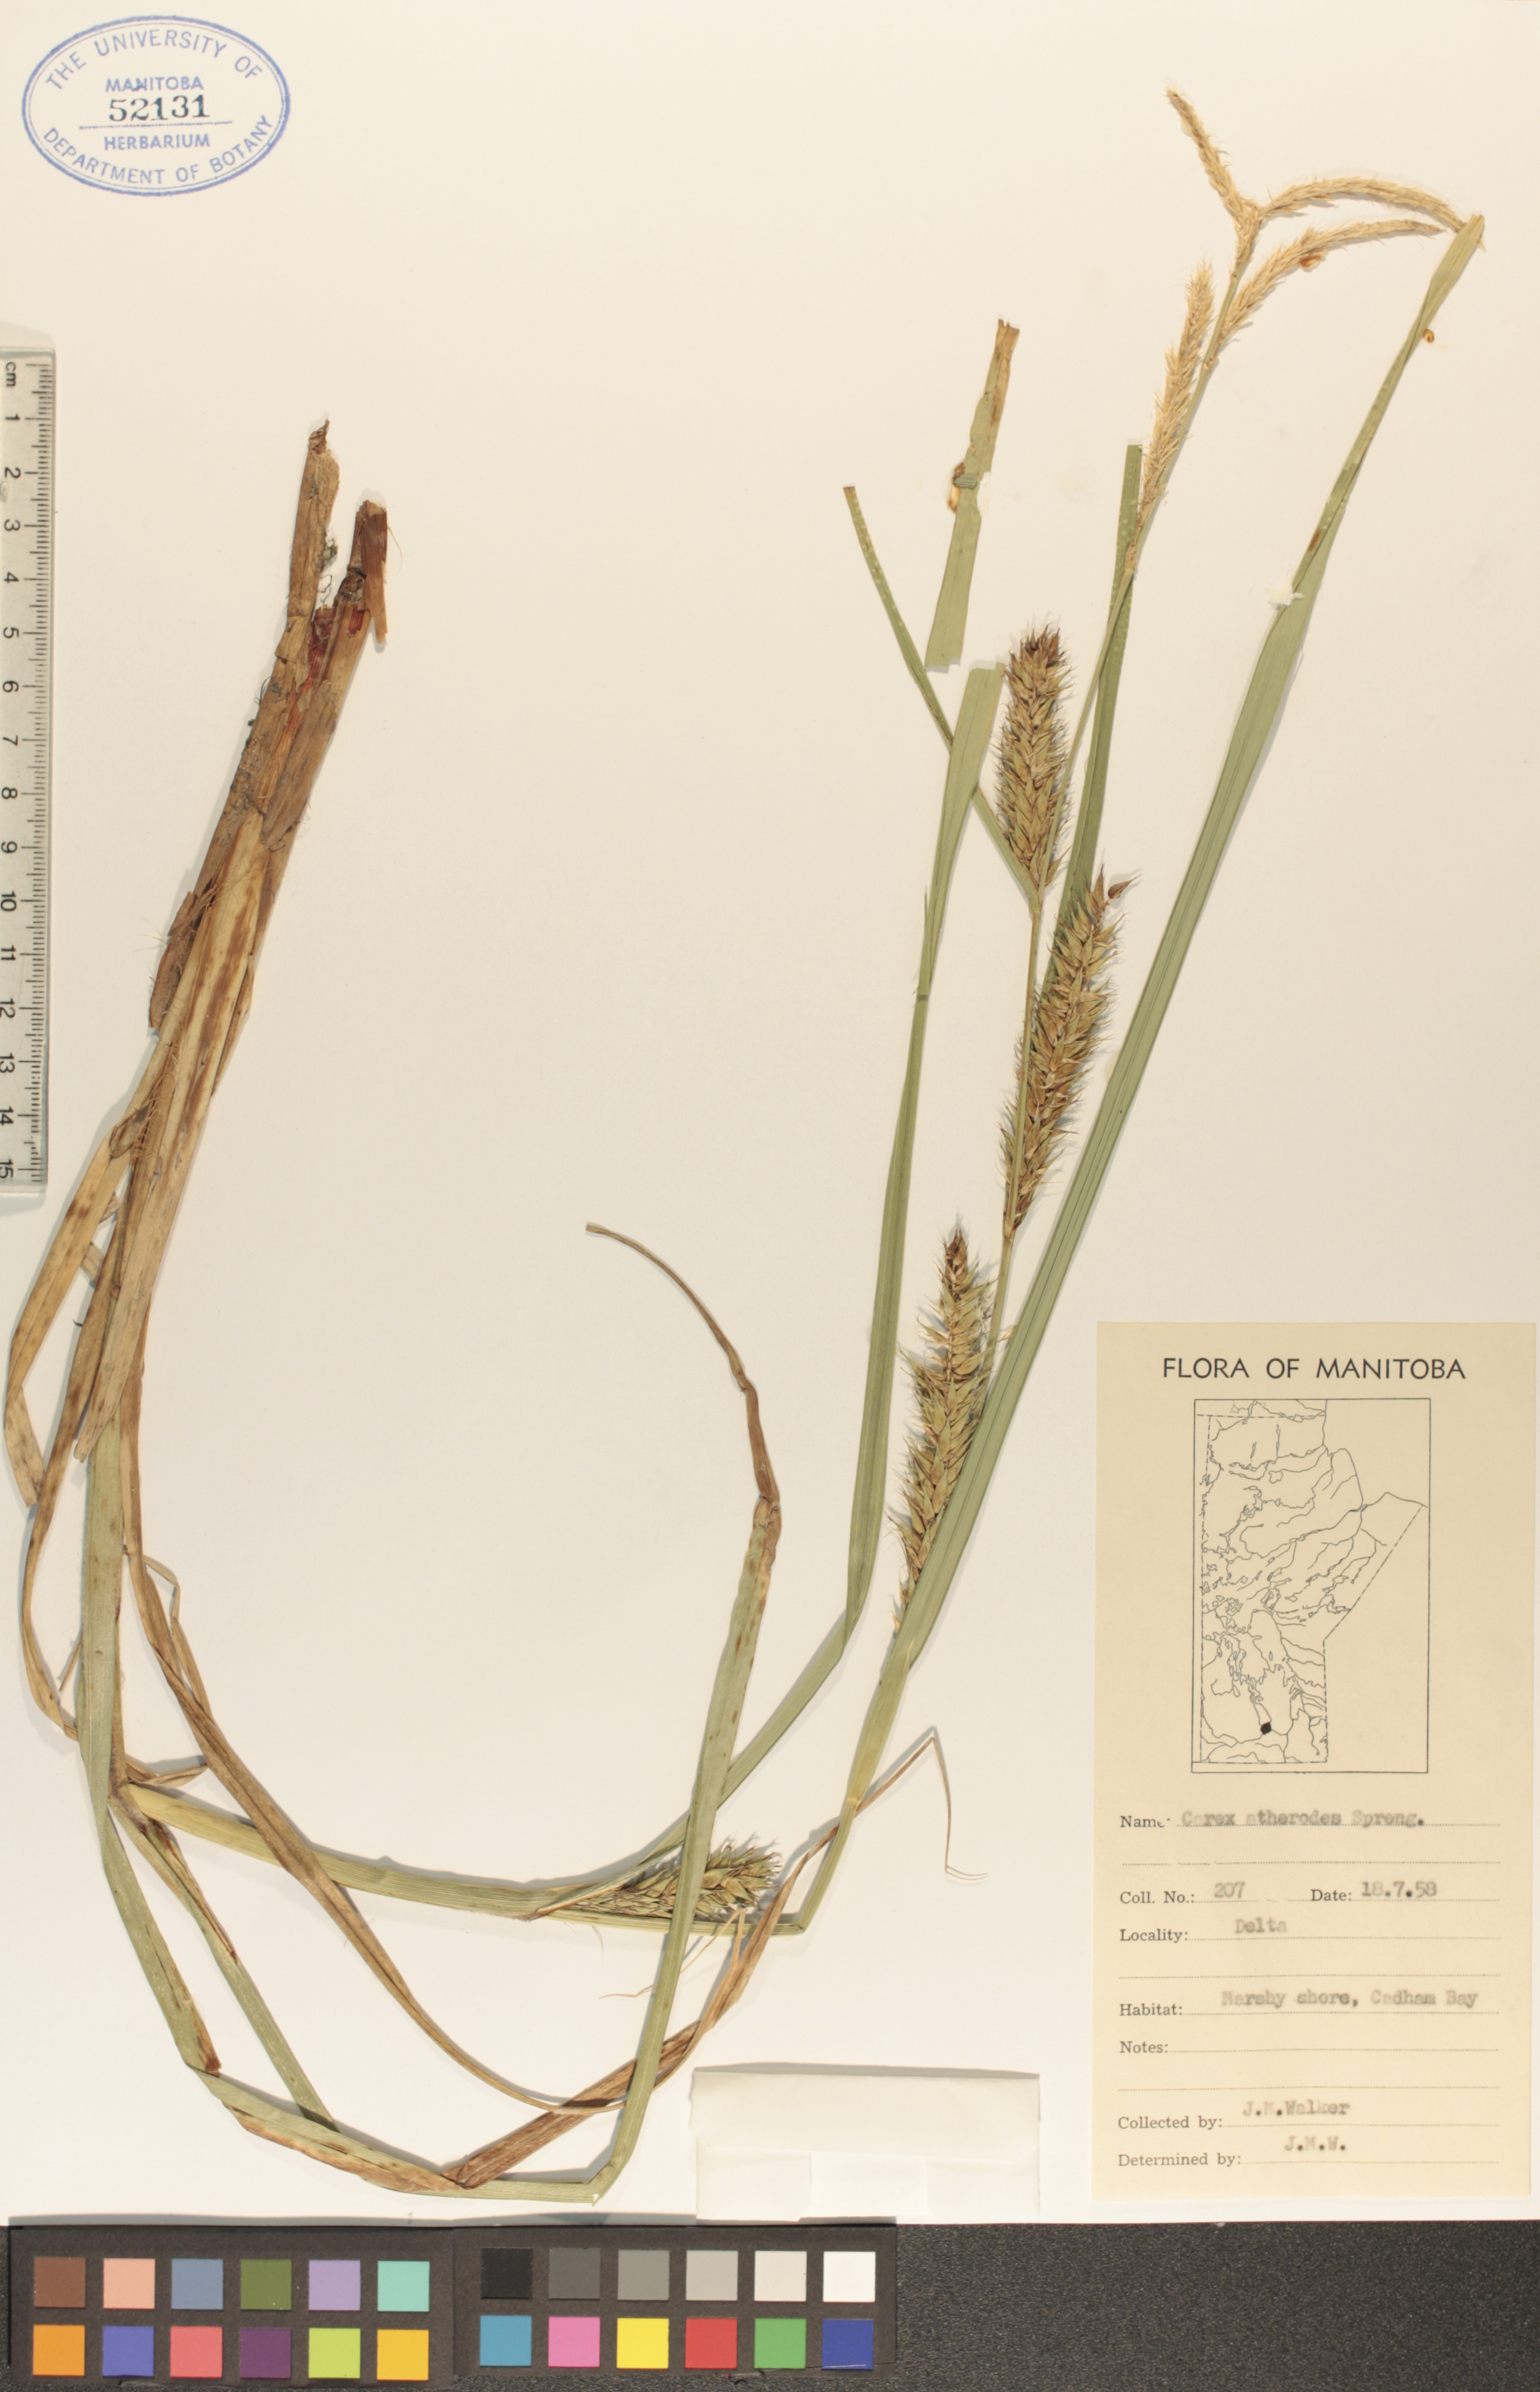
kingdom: Plantae
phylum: Tracheophyta
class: Liliopsida
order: Poales
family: Cyperaceae
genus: Carex
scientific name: Carex atherodes
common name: Wheat sedge
